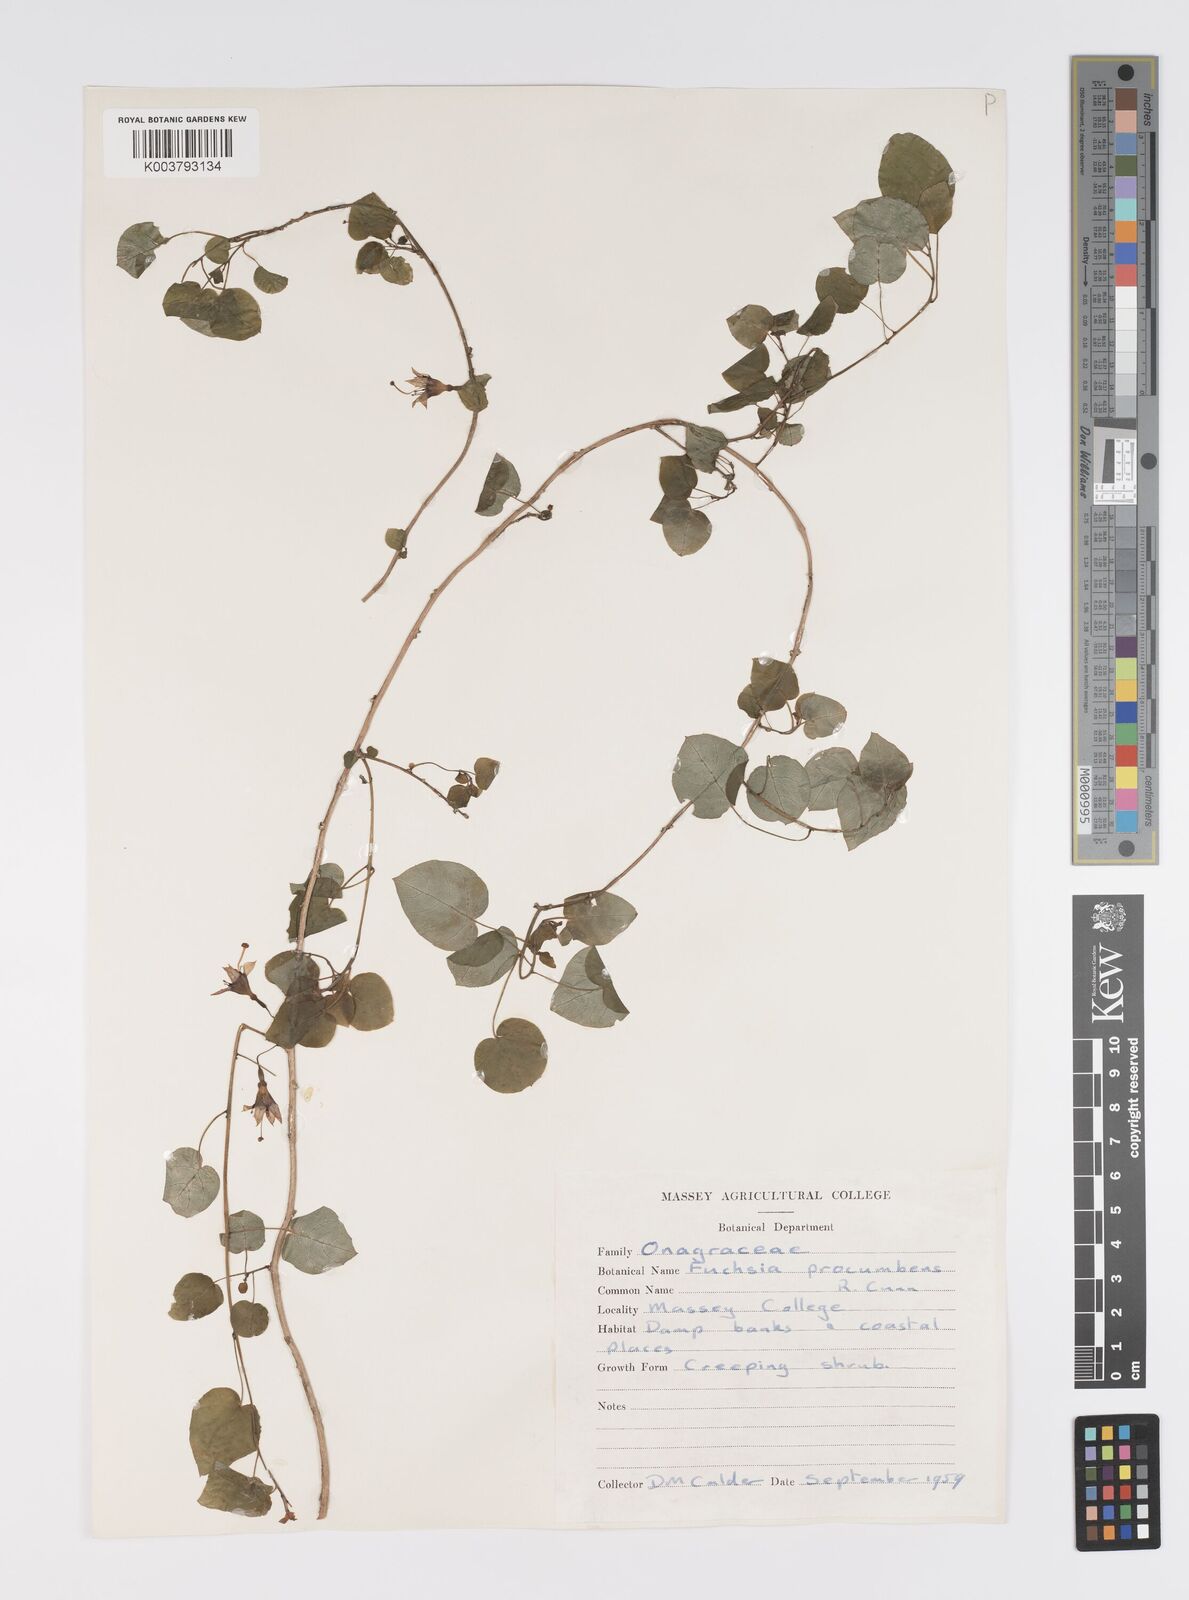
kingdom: Plantae
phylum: Tracheophyta
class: Magnoliopsida
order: Myrtales
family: Onagraceae
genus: Fuchsia
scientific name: Fuchsia perscandens
